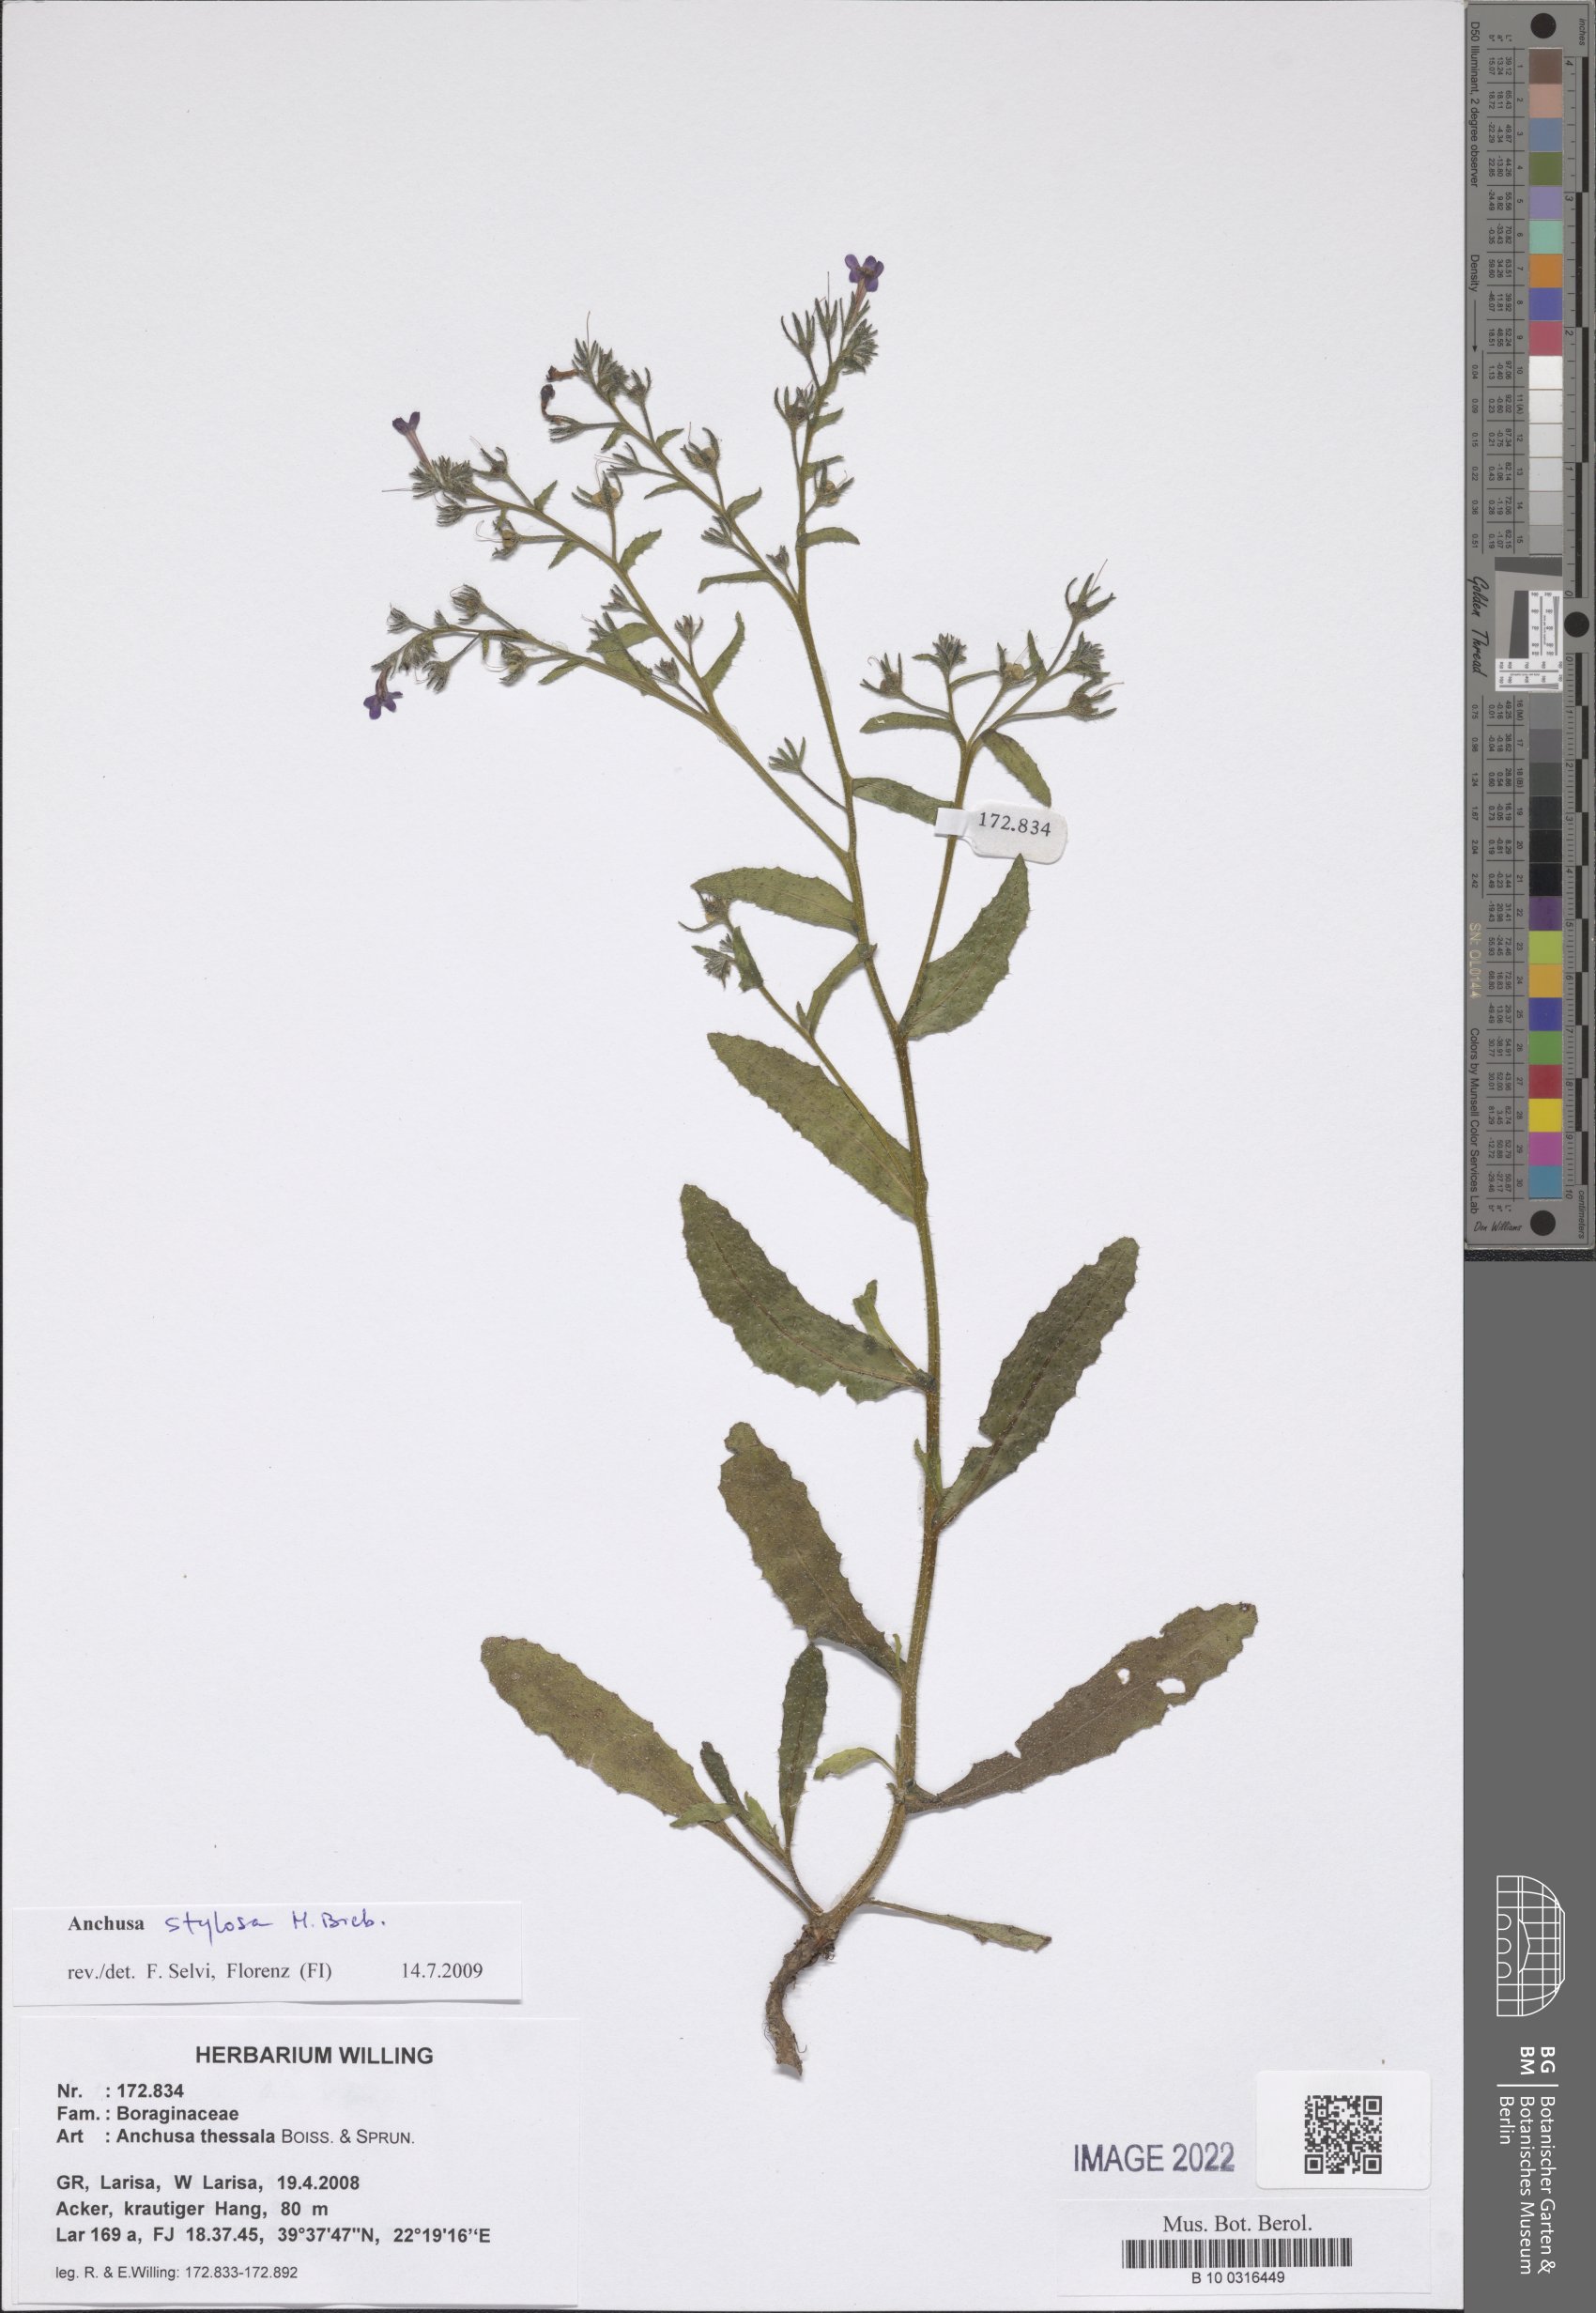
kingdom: Plantae
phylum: Tracheophyta
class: Magnoliopsida
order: Boraginales
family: Boraginaceae
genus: Anchusa
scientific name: Anchusa stylosa
